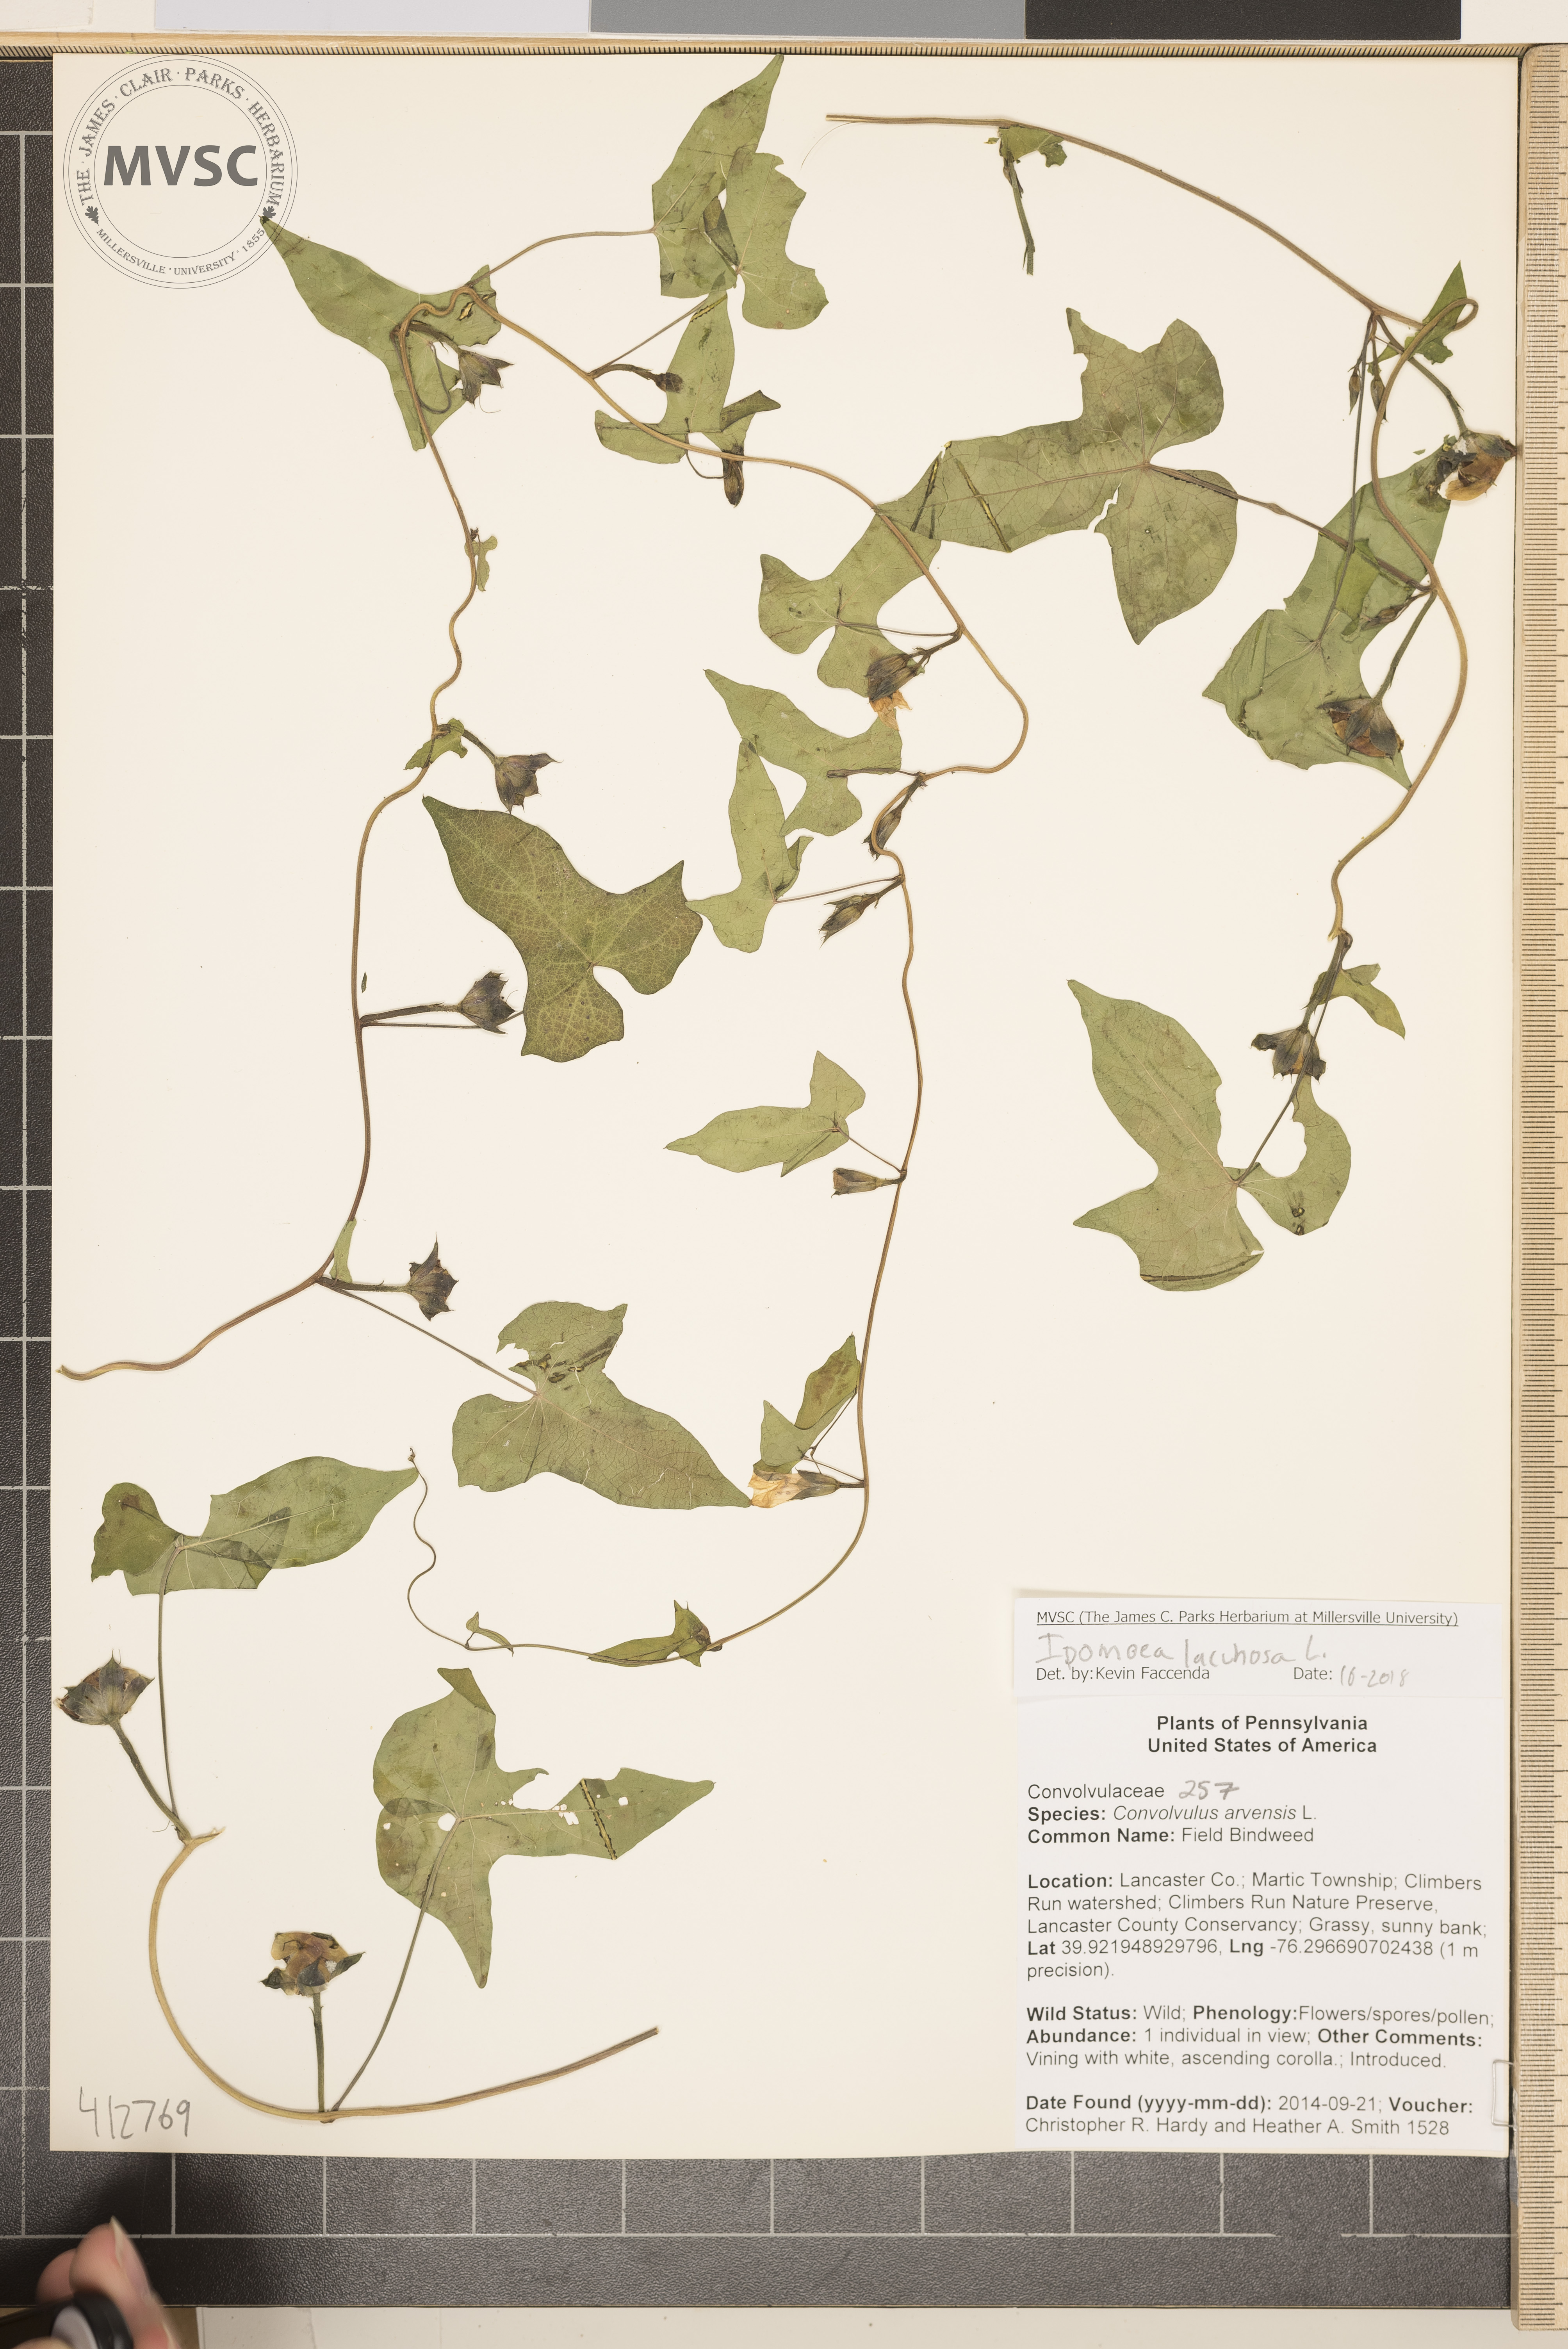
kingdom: Plantae
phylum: Tracheophyta
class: Magnoliopsida
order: Solanales
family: Convolvulaceae
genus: Ipomoea
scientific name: Ipomoea lacunosa
